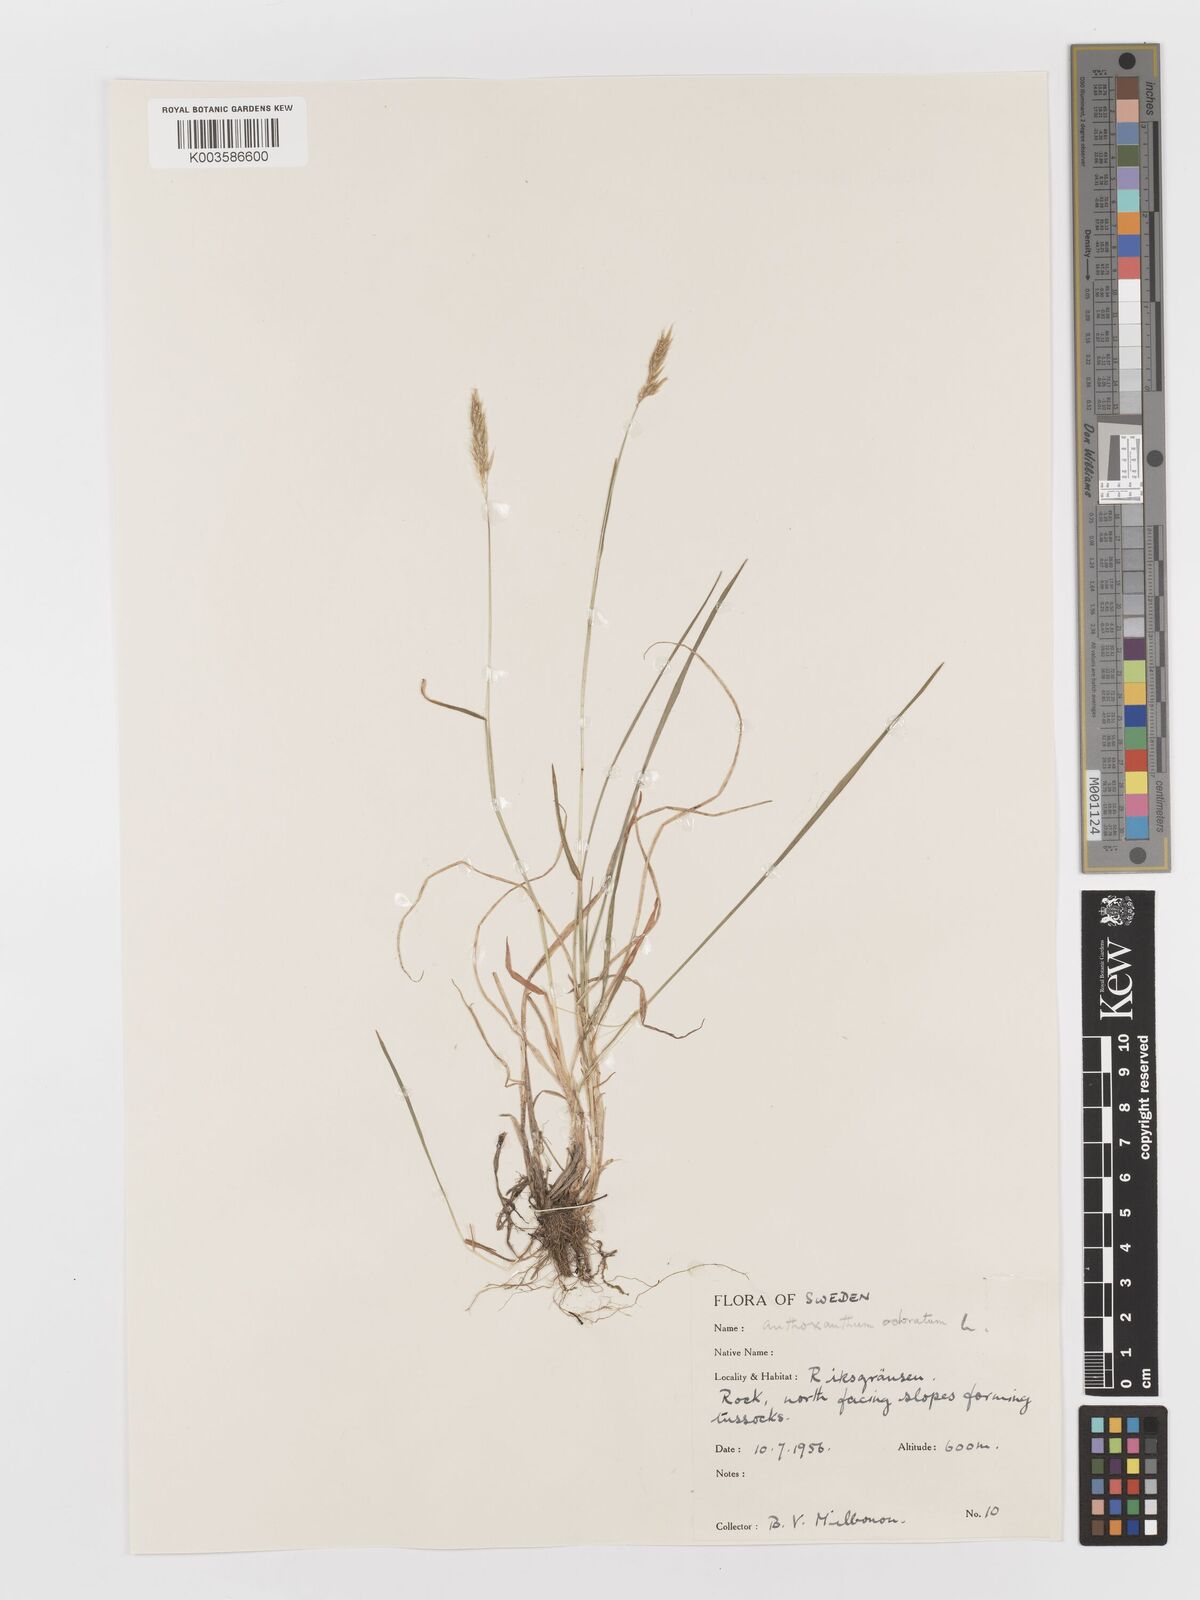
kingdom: Plantae
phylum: Tracheophyta
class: Liliopsida
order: Poales
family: Poaceae
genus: Anthoxanthum
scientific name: Anthoxanthum odoratum
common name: Sweet vernalgrass
